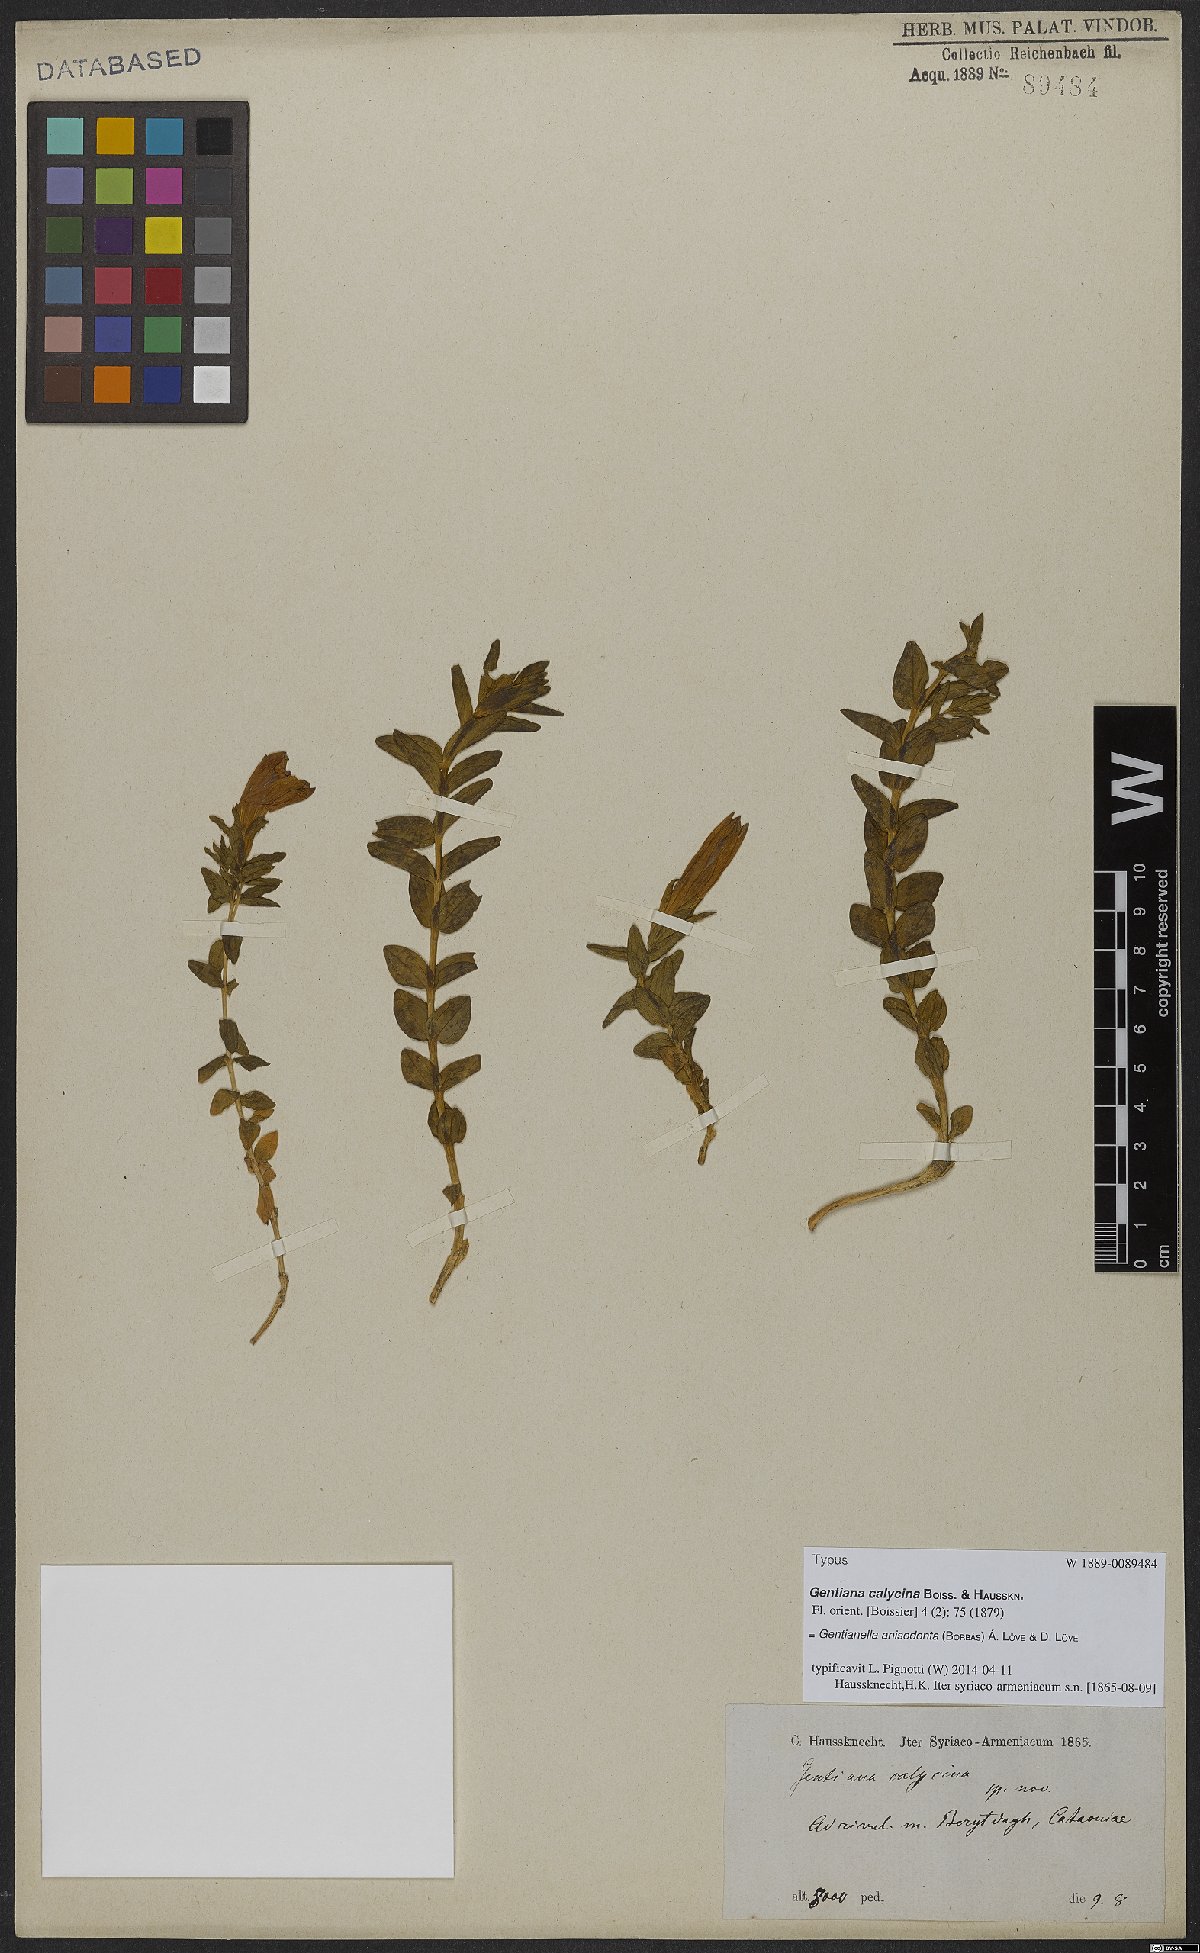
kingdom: Plantae
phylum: Tracheophyta
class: Magnoliopsida
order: Gentianales
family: Gentianaceae
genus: Gentianella
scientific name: Gentianella anisodonta
